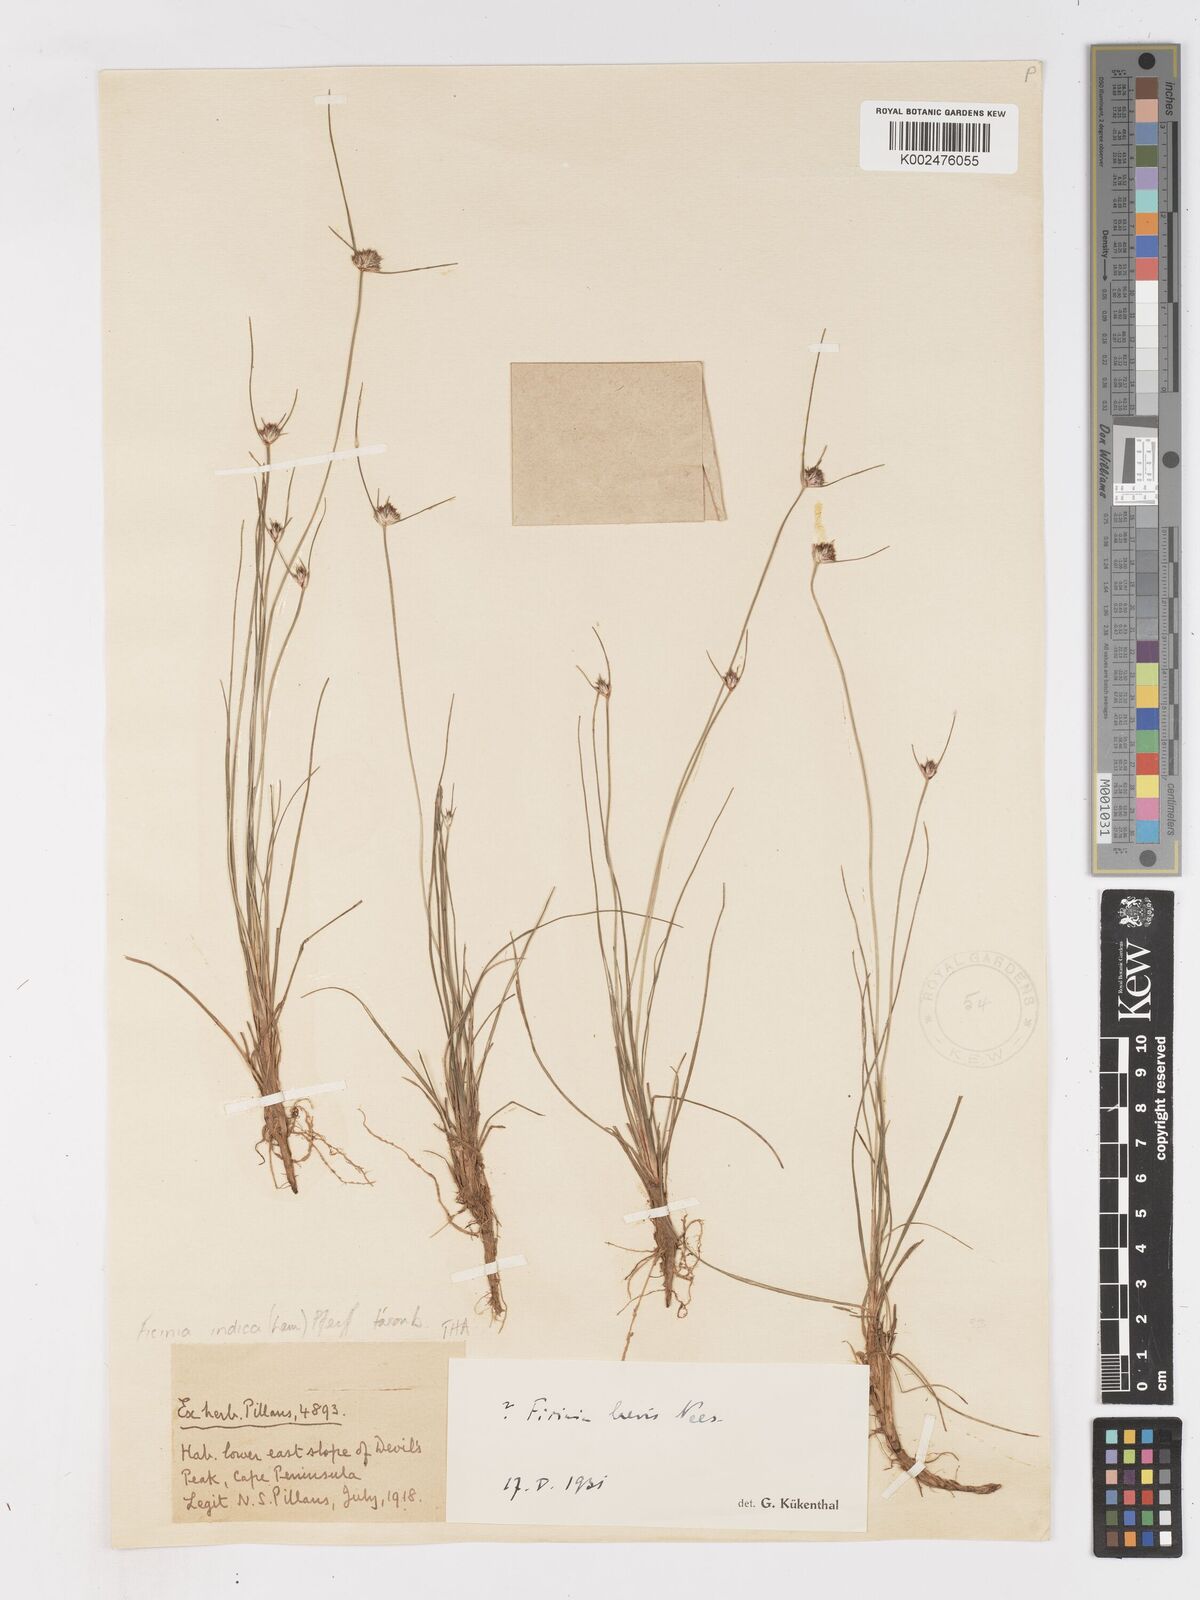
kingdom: Plantae
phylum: Tracheophyta
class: Liliopsida
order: Poales
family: Cyperaceae
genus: Ficinia
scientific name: Ficinia indica
